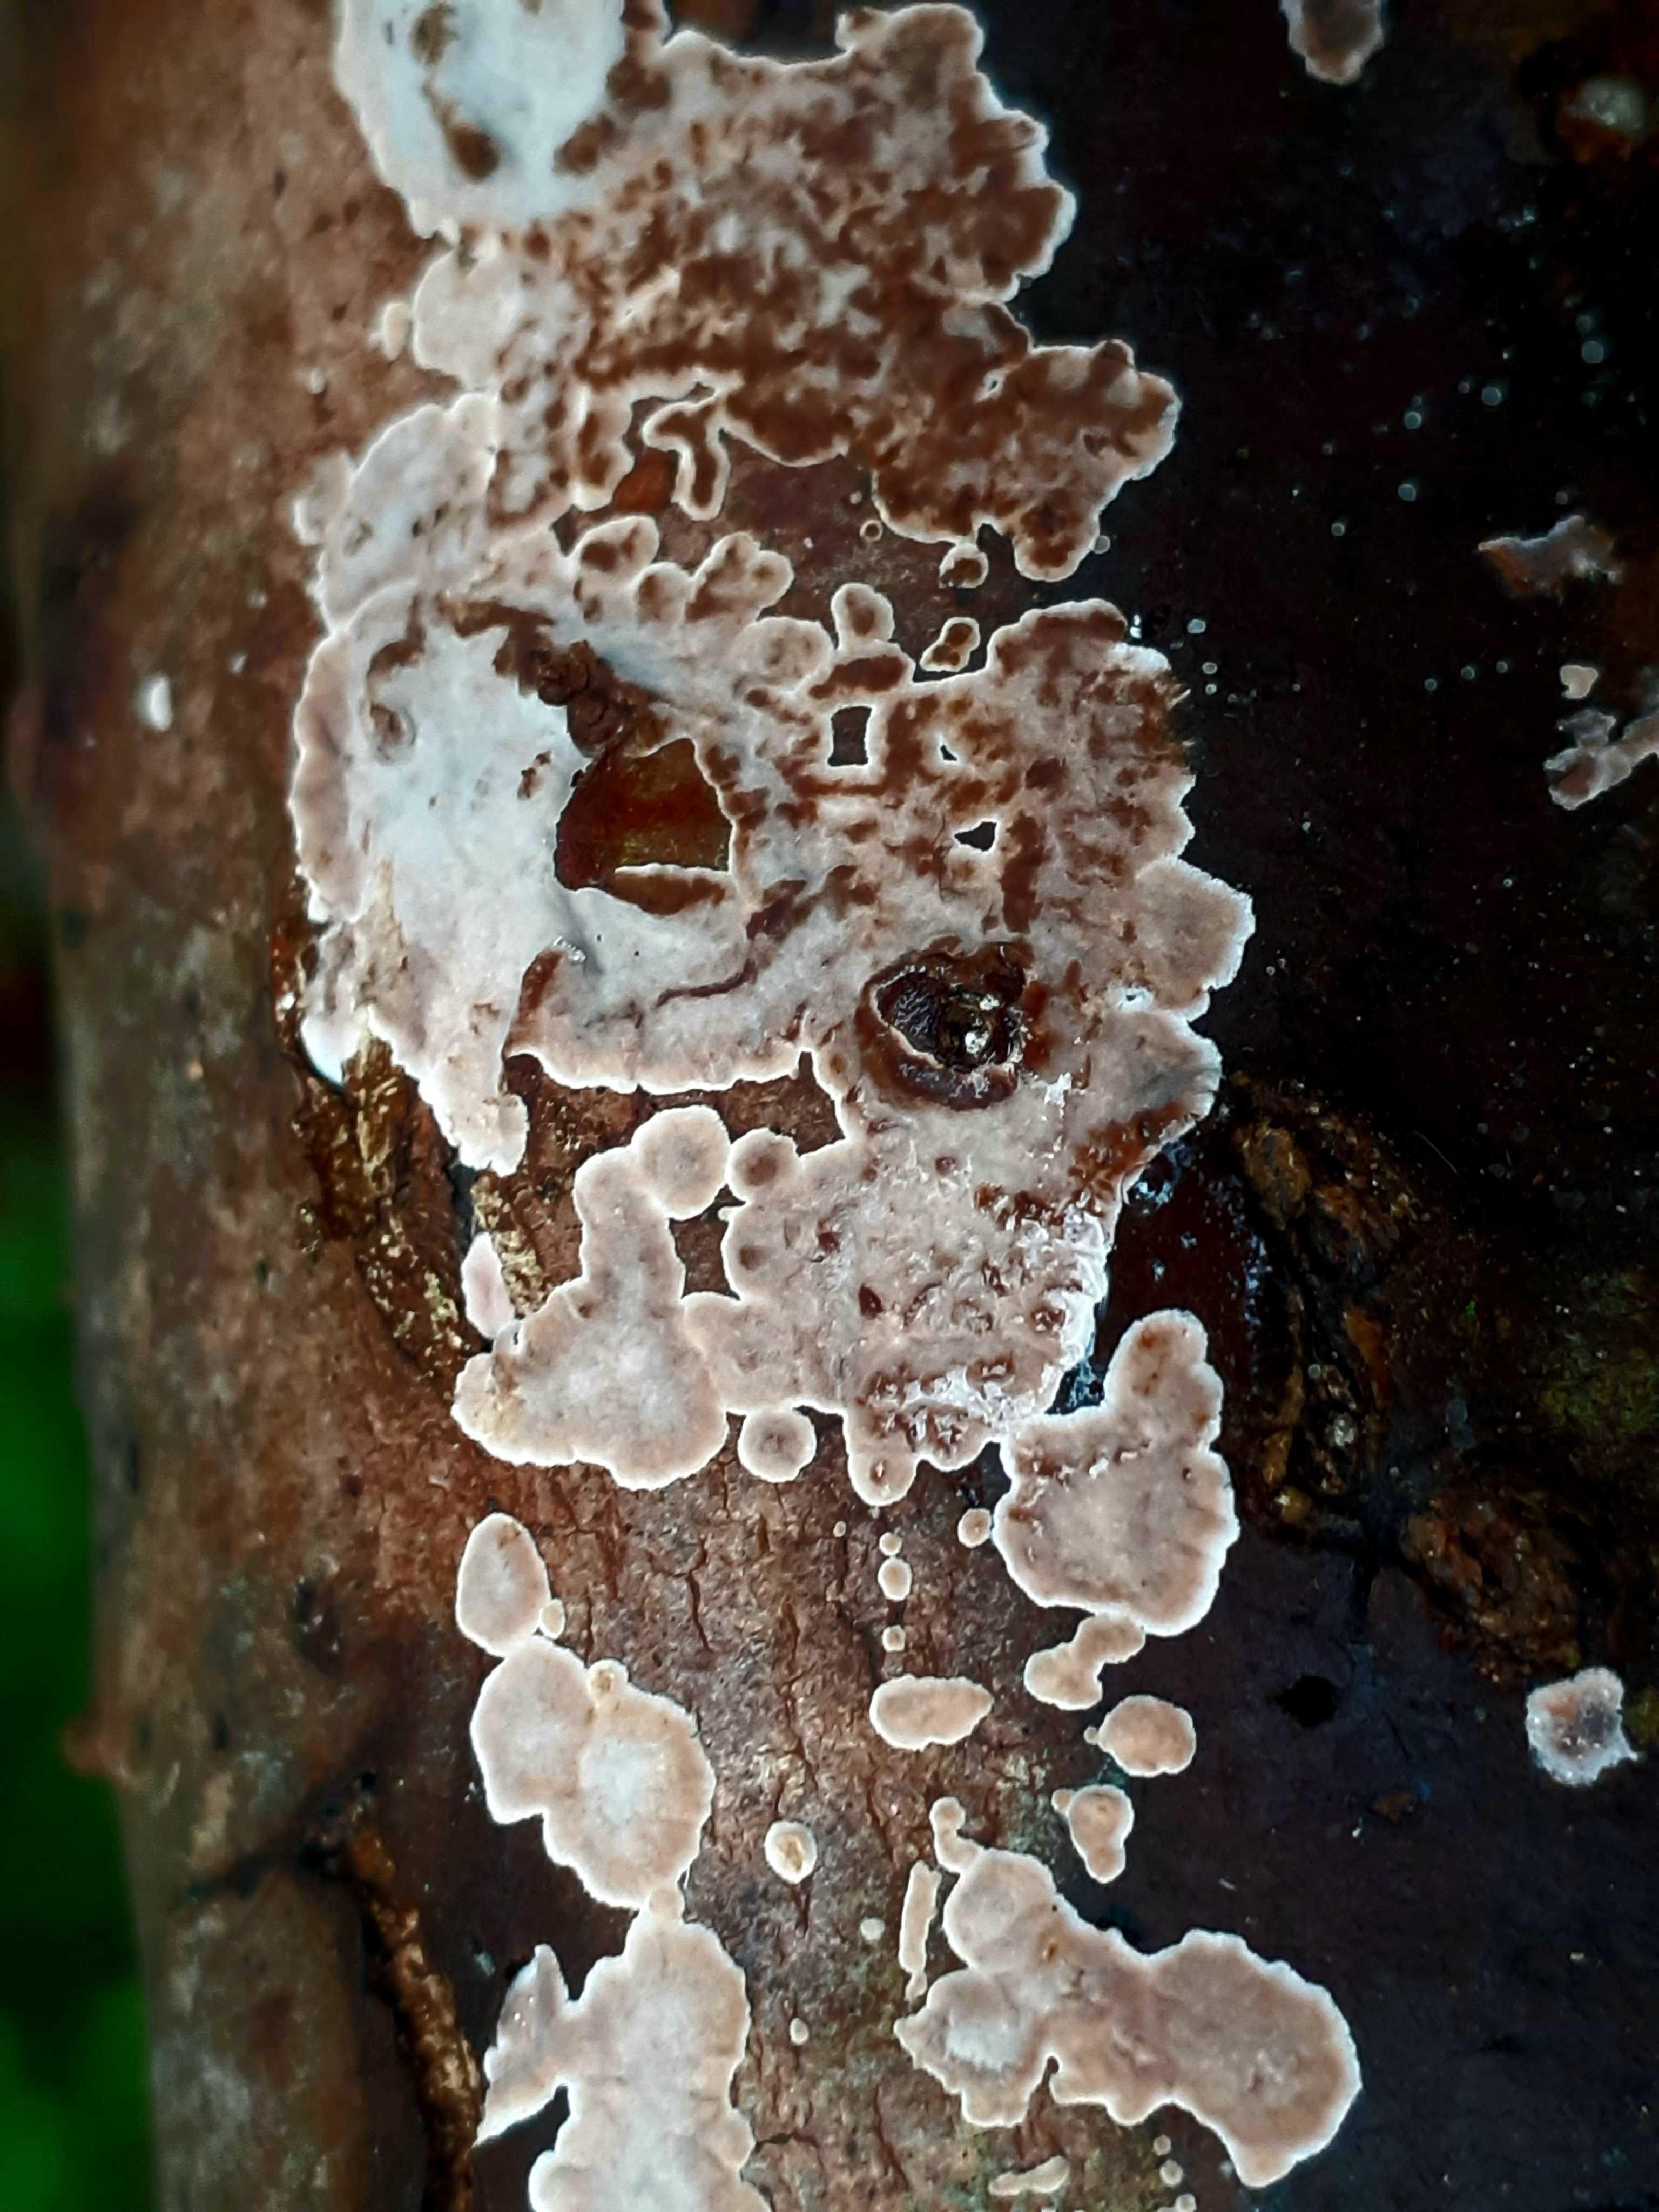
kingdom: Fungi
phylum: Basidiomycota
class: Agaricomycetes
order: Russulales
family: Stereaceae
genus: Stereum
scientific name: Stereum sanguinolentum
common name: blødende lædersvamp
